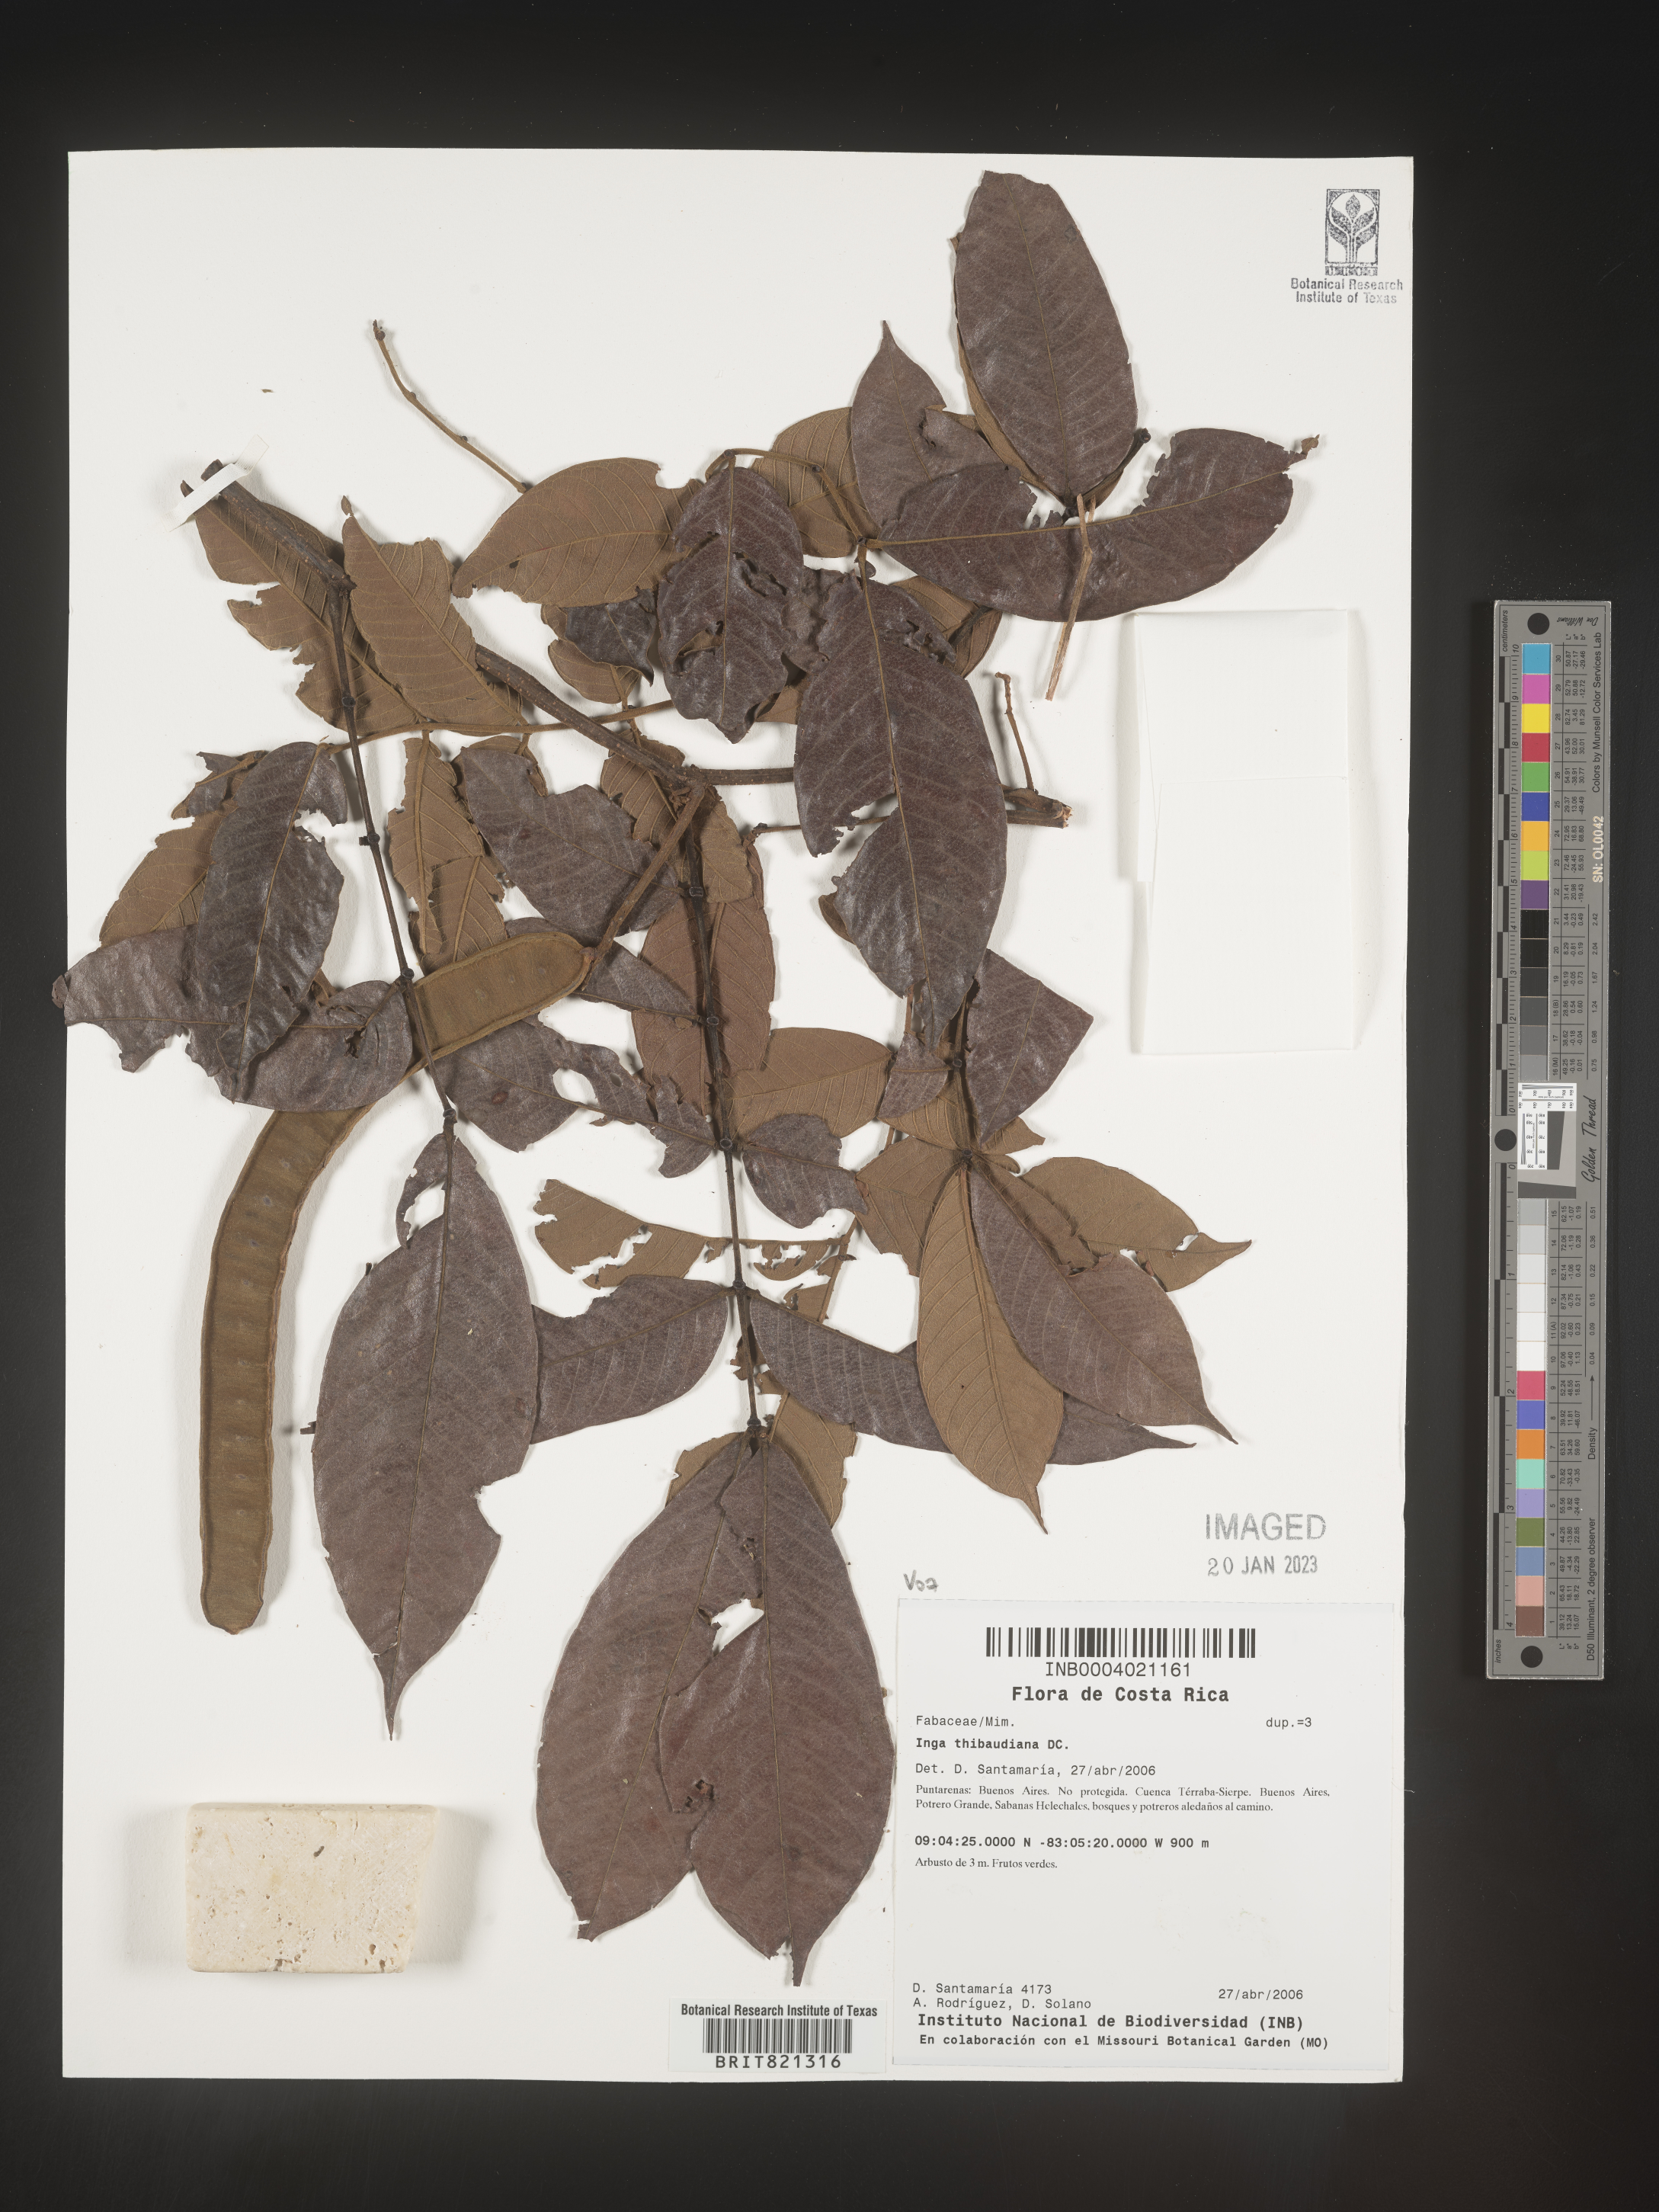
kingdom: Plantae
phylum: Tracheophyta
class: Magnoliopsida
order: Fabales
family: Fabaceae
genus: Inga
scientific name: Inga
